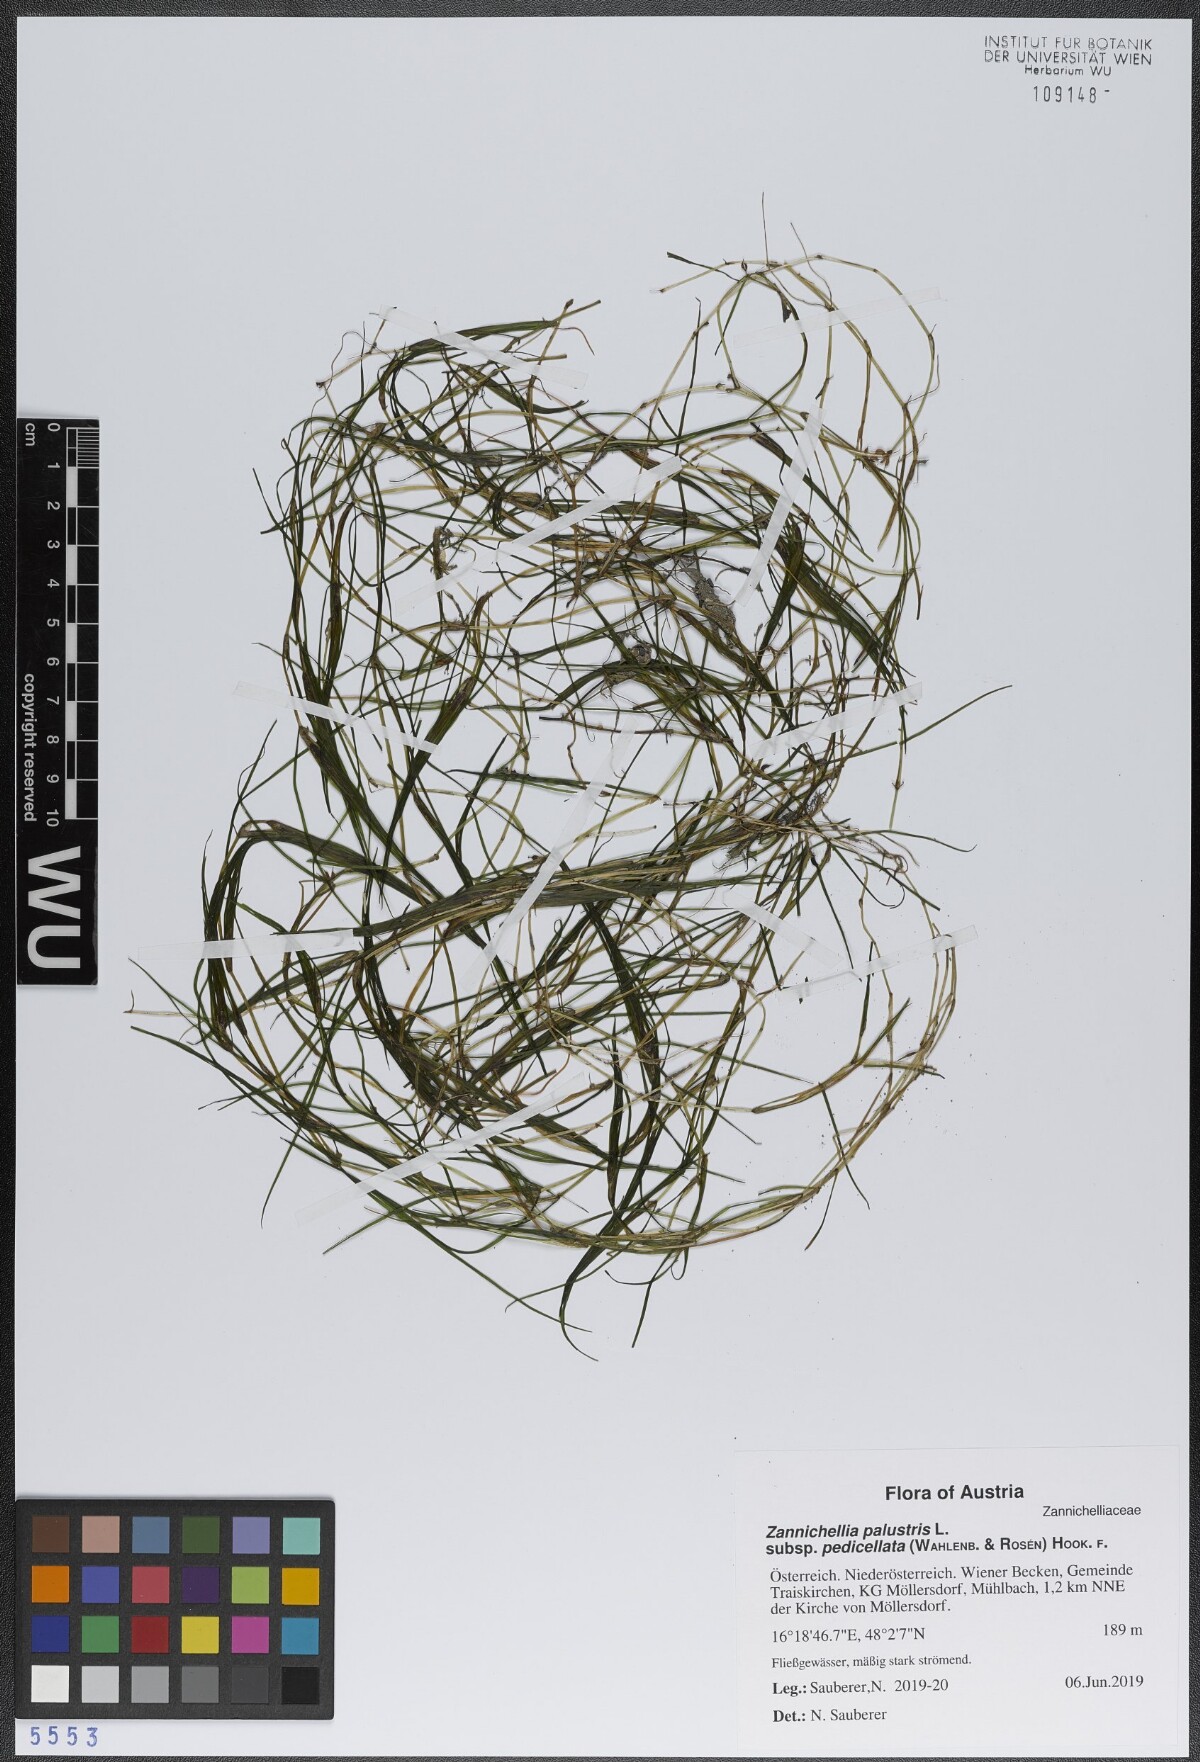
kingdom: Plantae
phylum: Tracheophyta
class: Liliopsida
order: Alismatales
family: Potamogetonaceae
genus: Zannichellia
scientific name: Zannichellia palustris
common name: Horned pondweed
